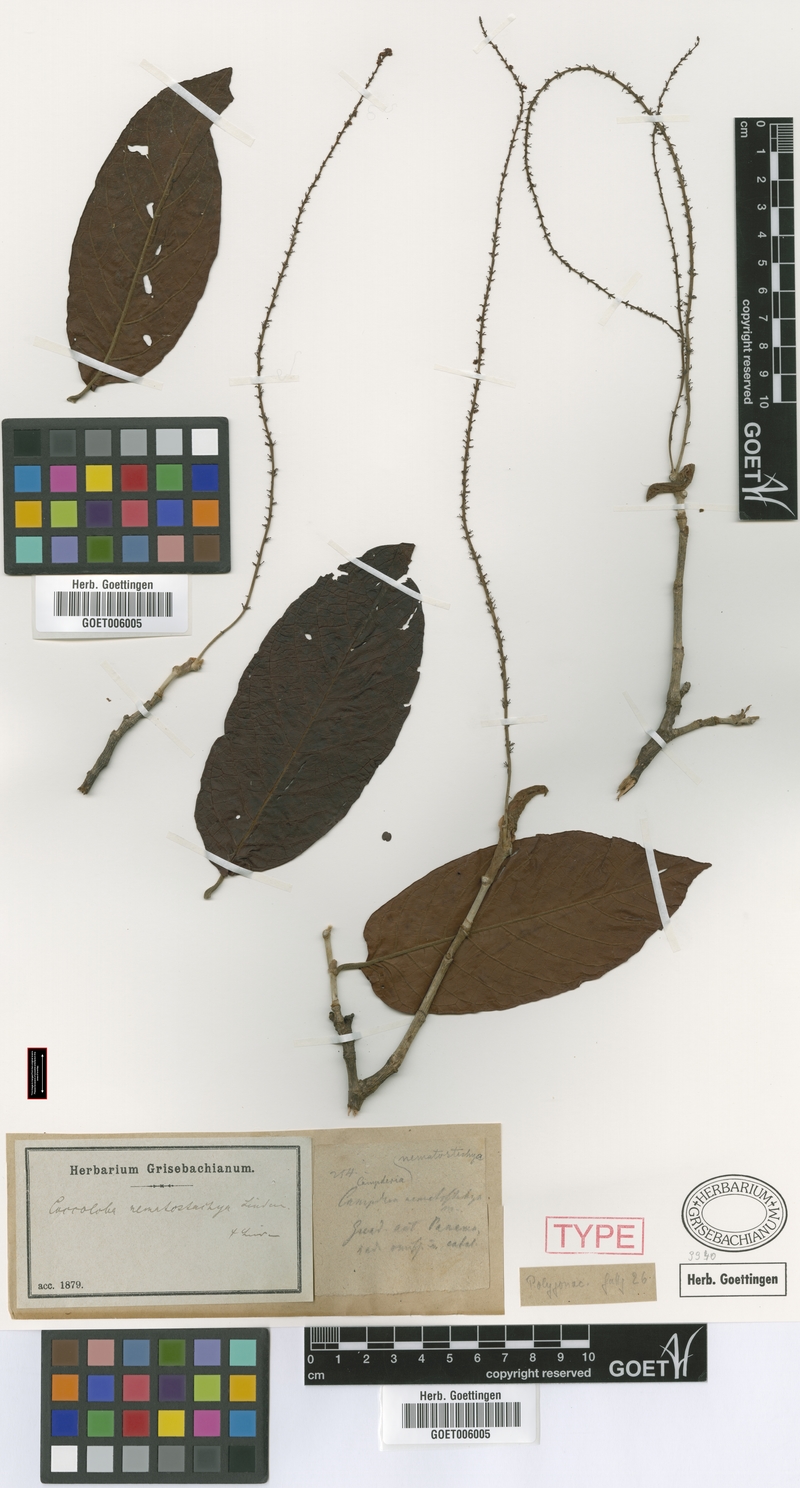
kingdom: Plantae
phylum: Tracheophyta
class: Magnoliopsida
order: Caryophyllales
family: Polygonaceae
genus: Coccoloba
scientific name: Coccoloba manzinellensis
